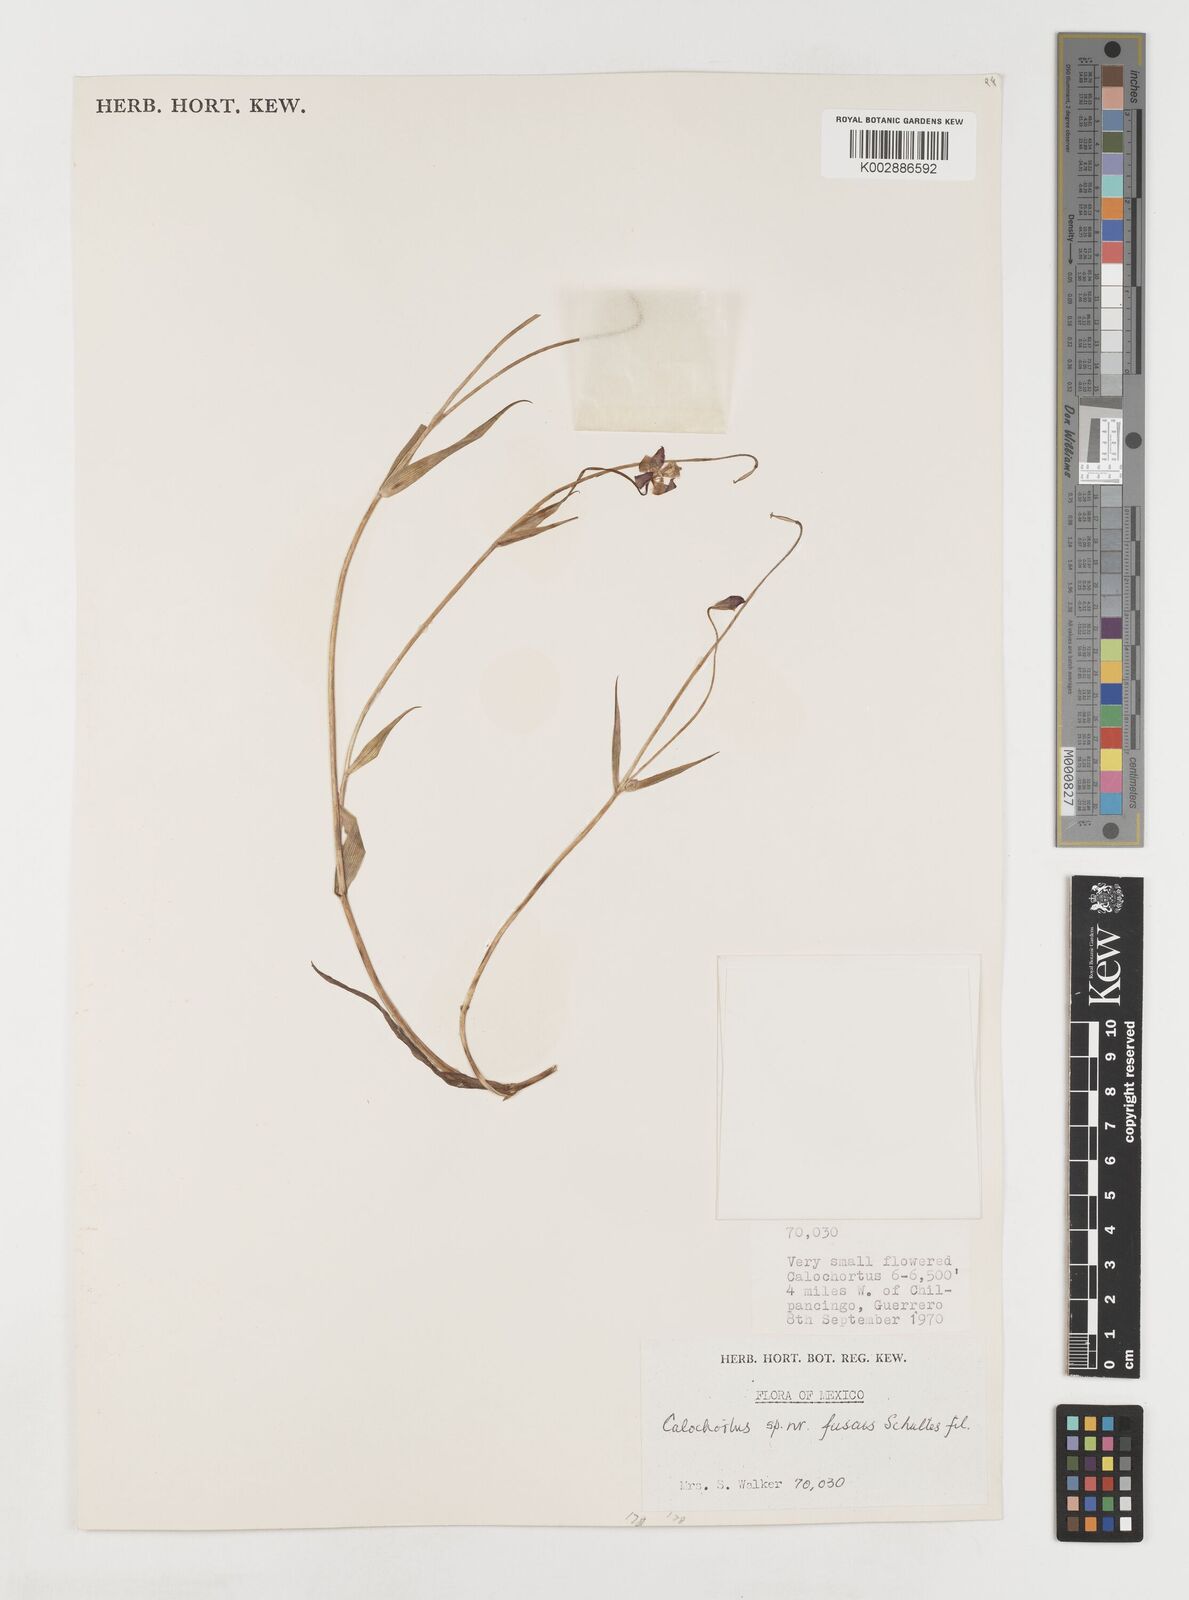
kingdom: Plantae
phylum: Tracheophyta
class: Liliopsida
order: Liliales
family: Liliaceae
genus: Calochortus
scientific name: Calochortus fuscus
